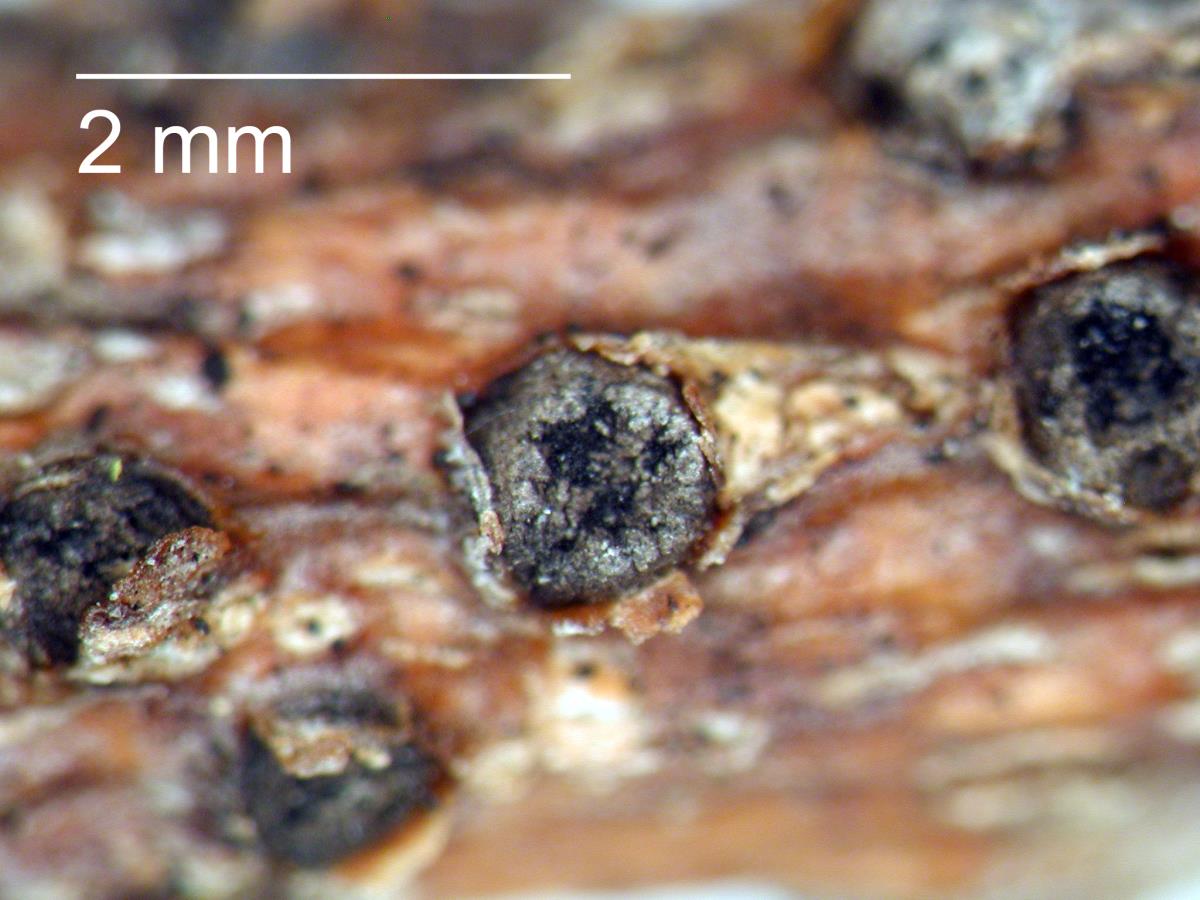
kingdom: Fungi
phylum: Ascomycota
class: Dothideomycetes
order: Botryosphaeriales
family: Aplosporellaceae
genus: Aplosporella
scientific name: Aplosporella sophorae
